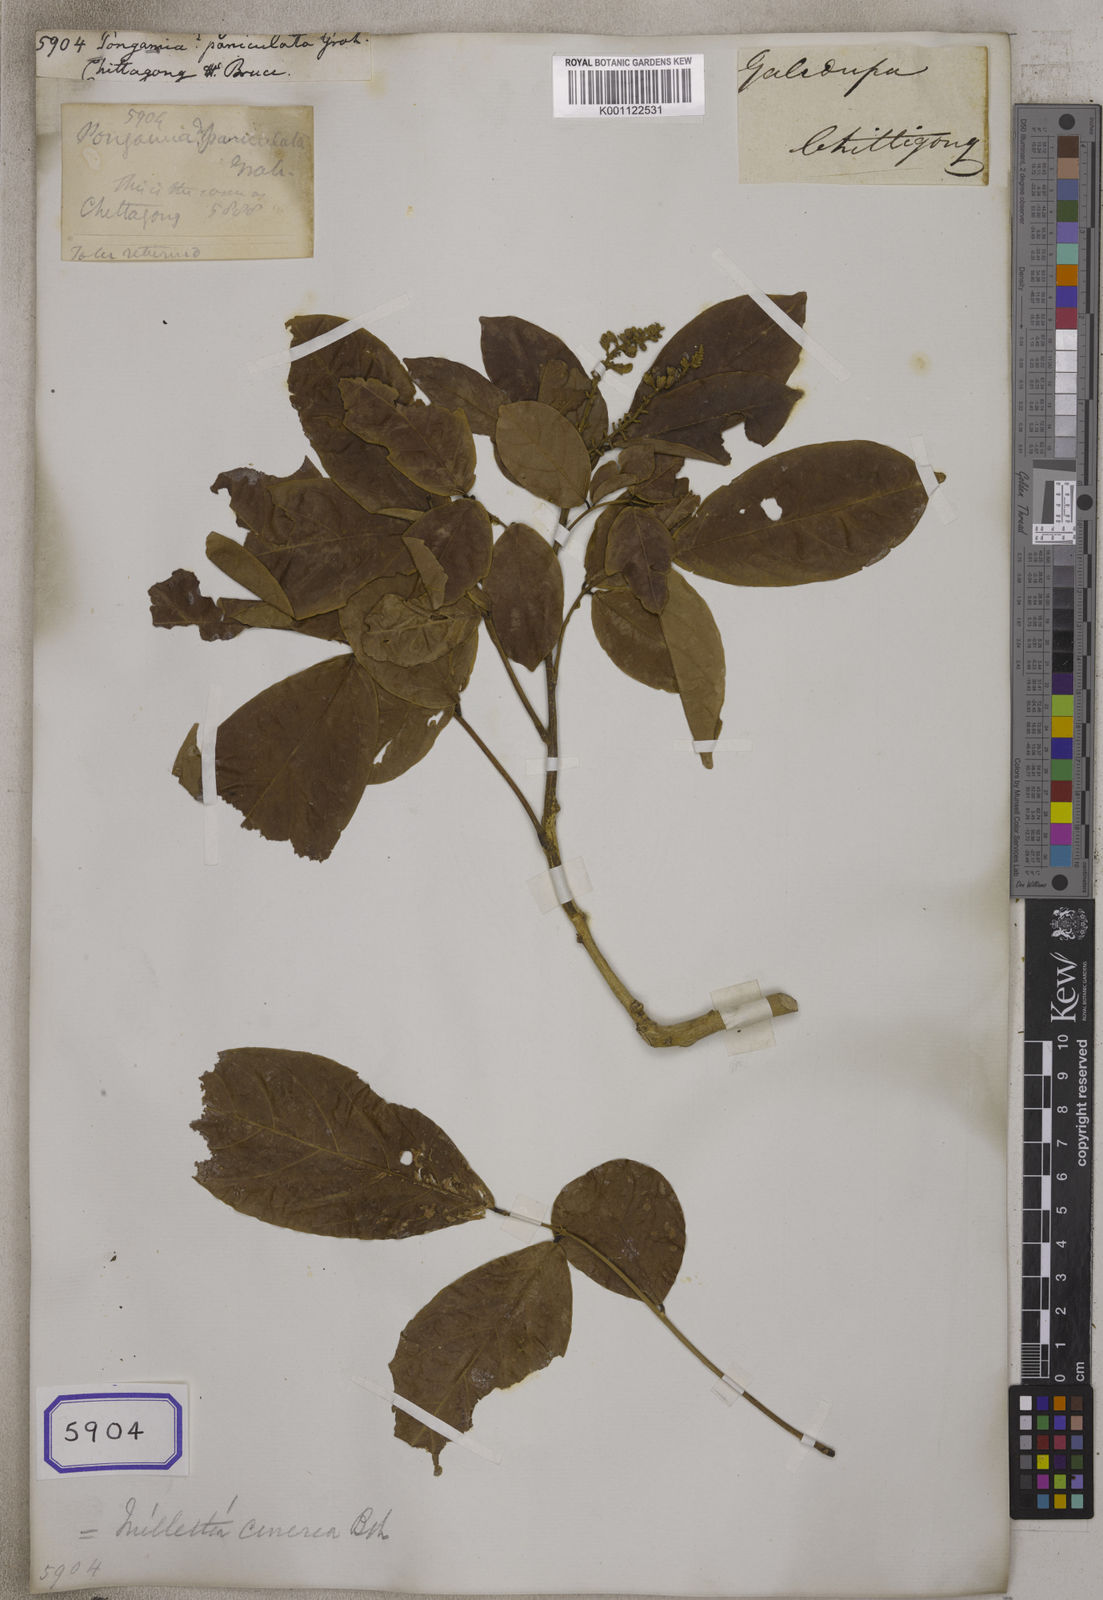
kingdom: Plantae
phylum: Tracheophyta
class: Magnoliopsida
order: Fabales
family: Fabaceae
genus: Callerya
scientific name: Callerya cinerea
